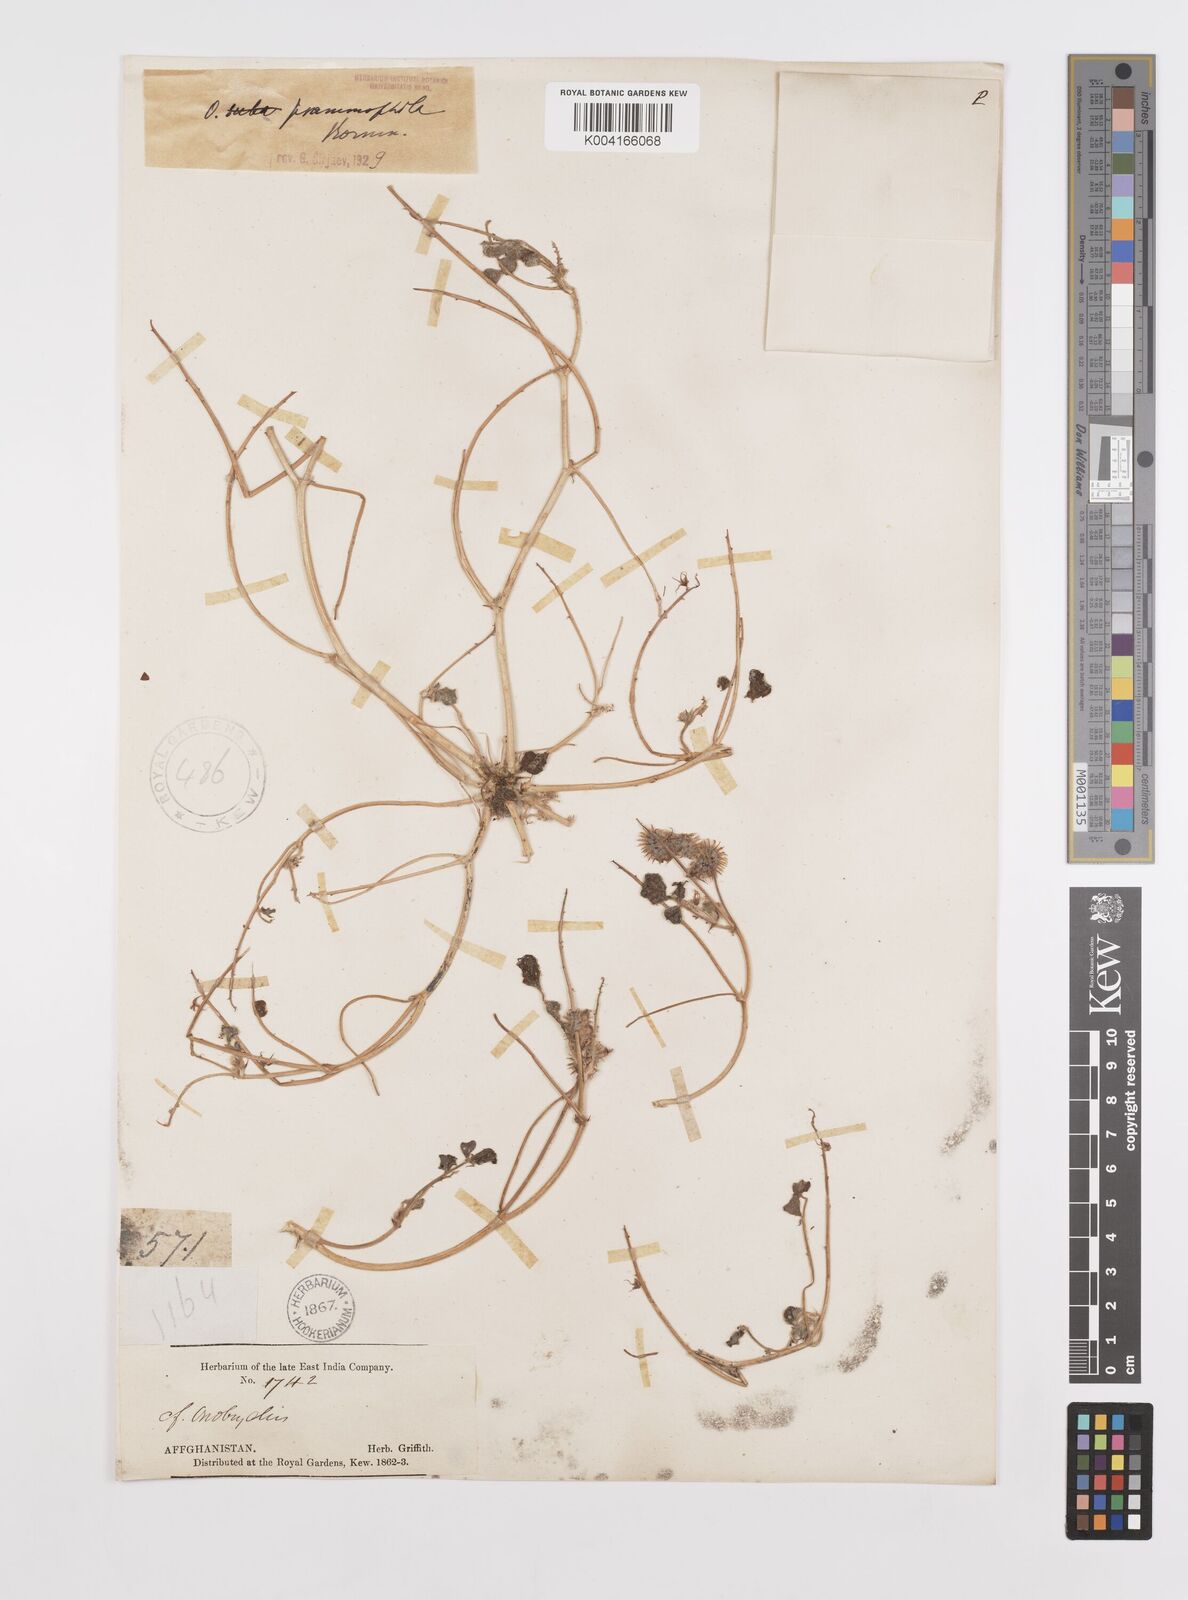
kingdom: Plantae
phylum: Tracheophyta
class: Magnoliopsida
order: Fabales
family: Fabaceae
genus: Onobrychis
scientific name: Onobrychis aucheri
